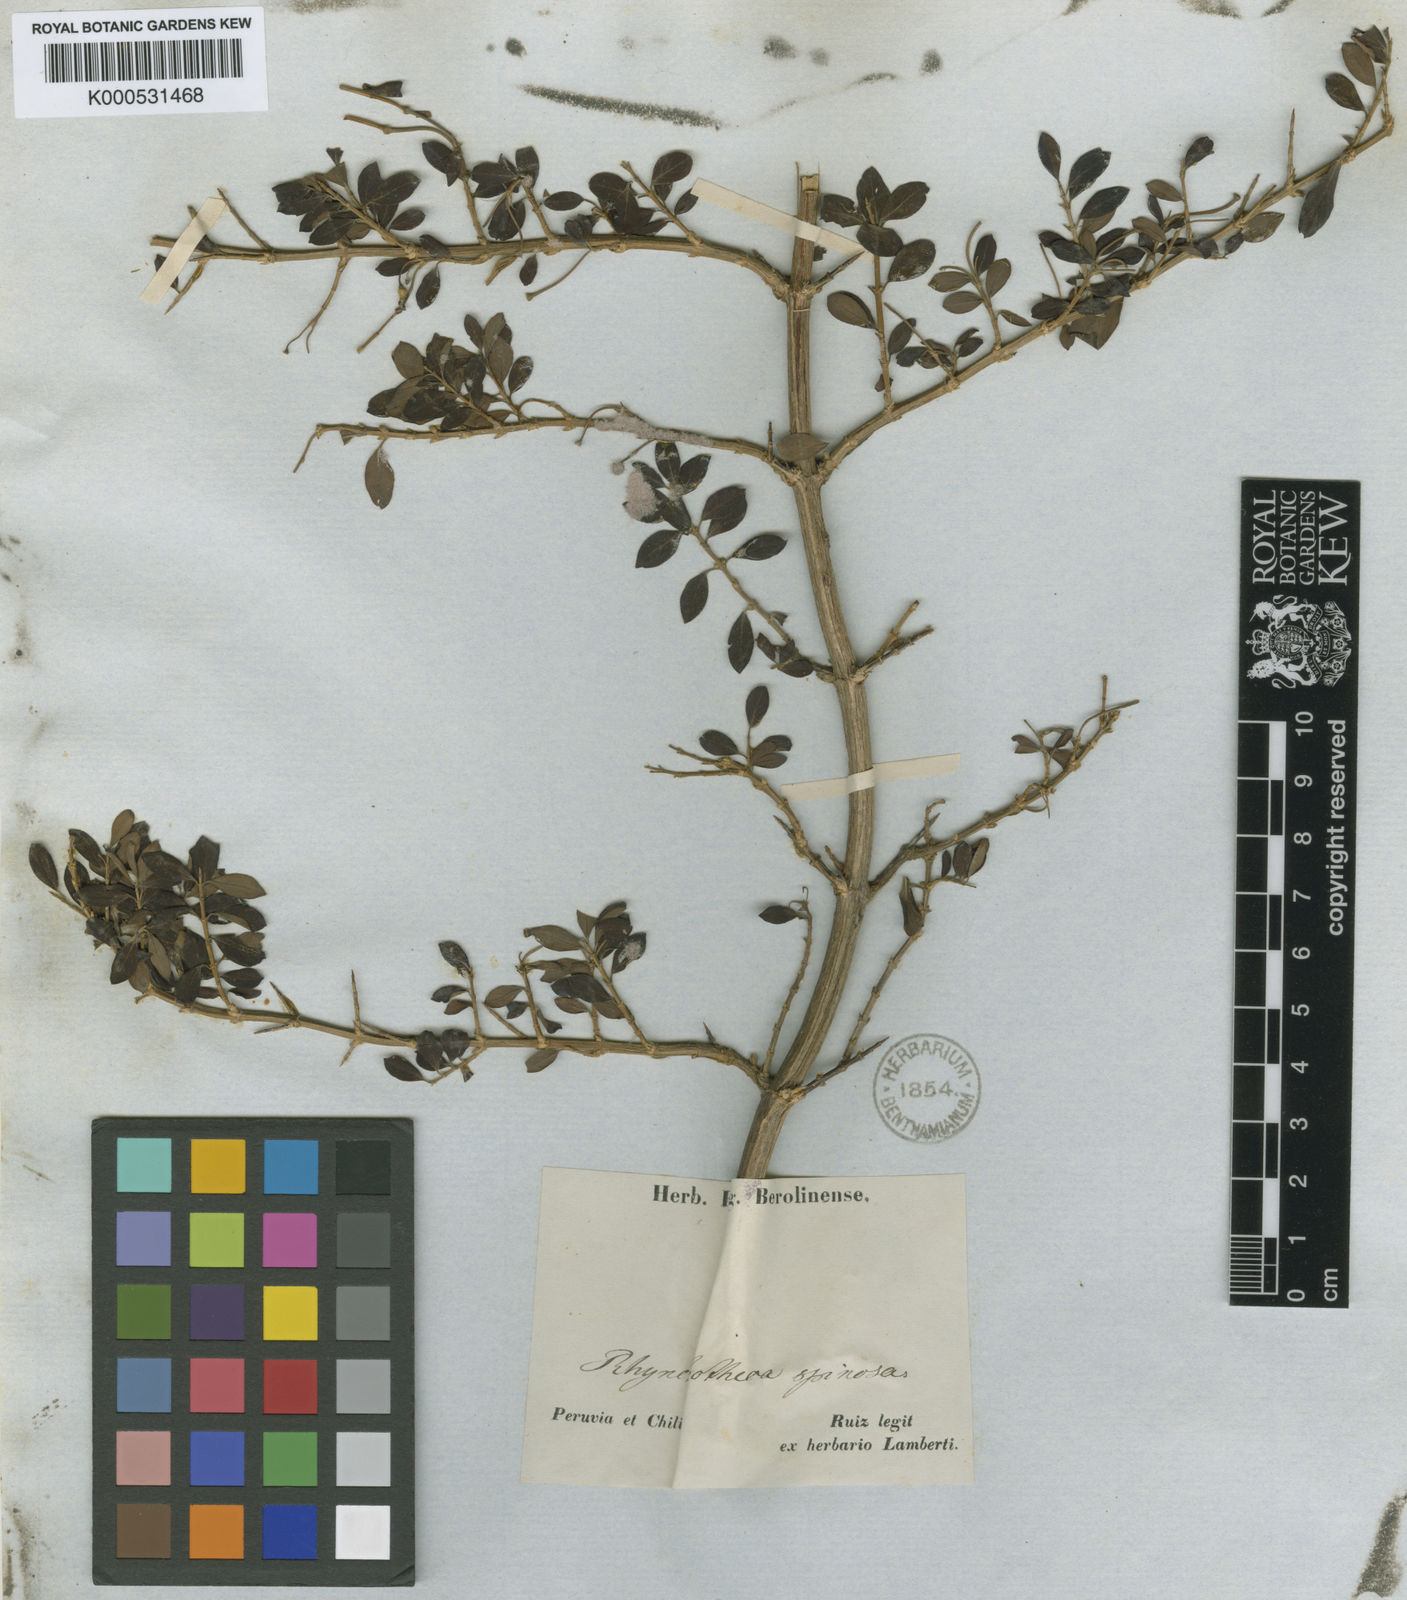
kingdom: Plantae
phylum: Tracheophyta
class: Magnoliopsida
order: Geraniales
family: Vivianiaceae
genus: Rhynchotheca
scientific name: Rhynchotheca spinosa
